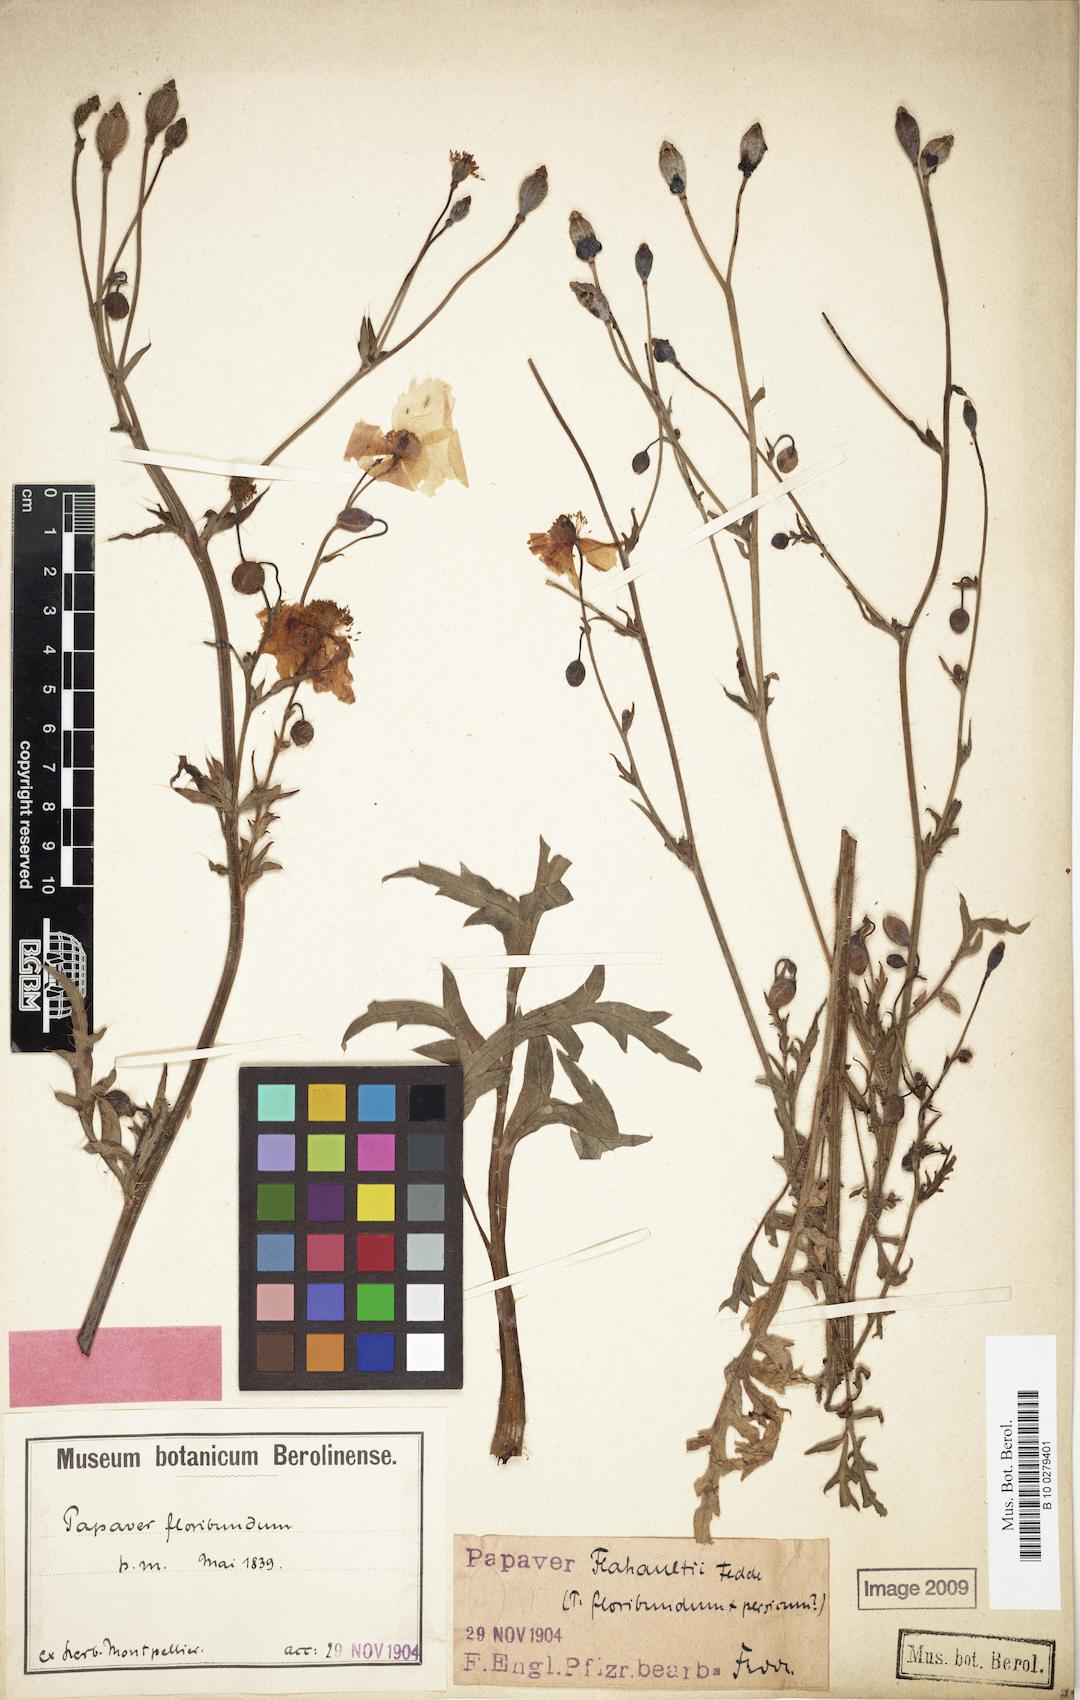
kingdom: Plantae
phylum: Tracheophyta
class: Magnoliopsida
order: Ranunculales
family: Papaveraceae
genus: Papaver
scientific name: Papaver flahaultii
